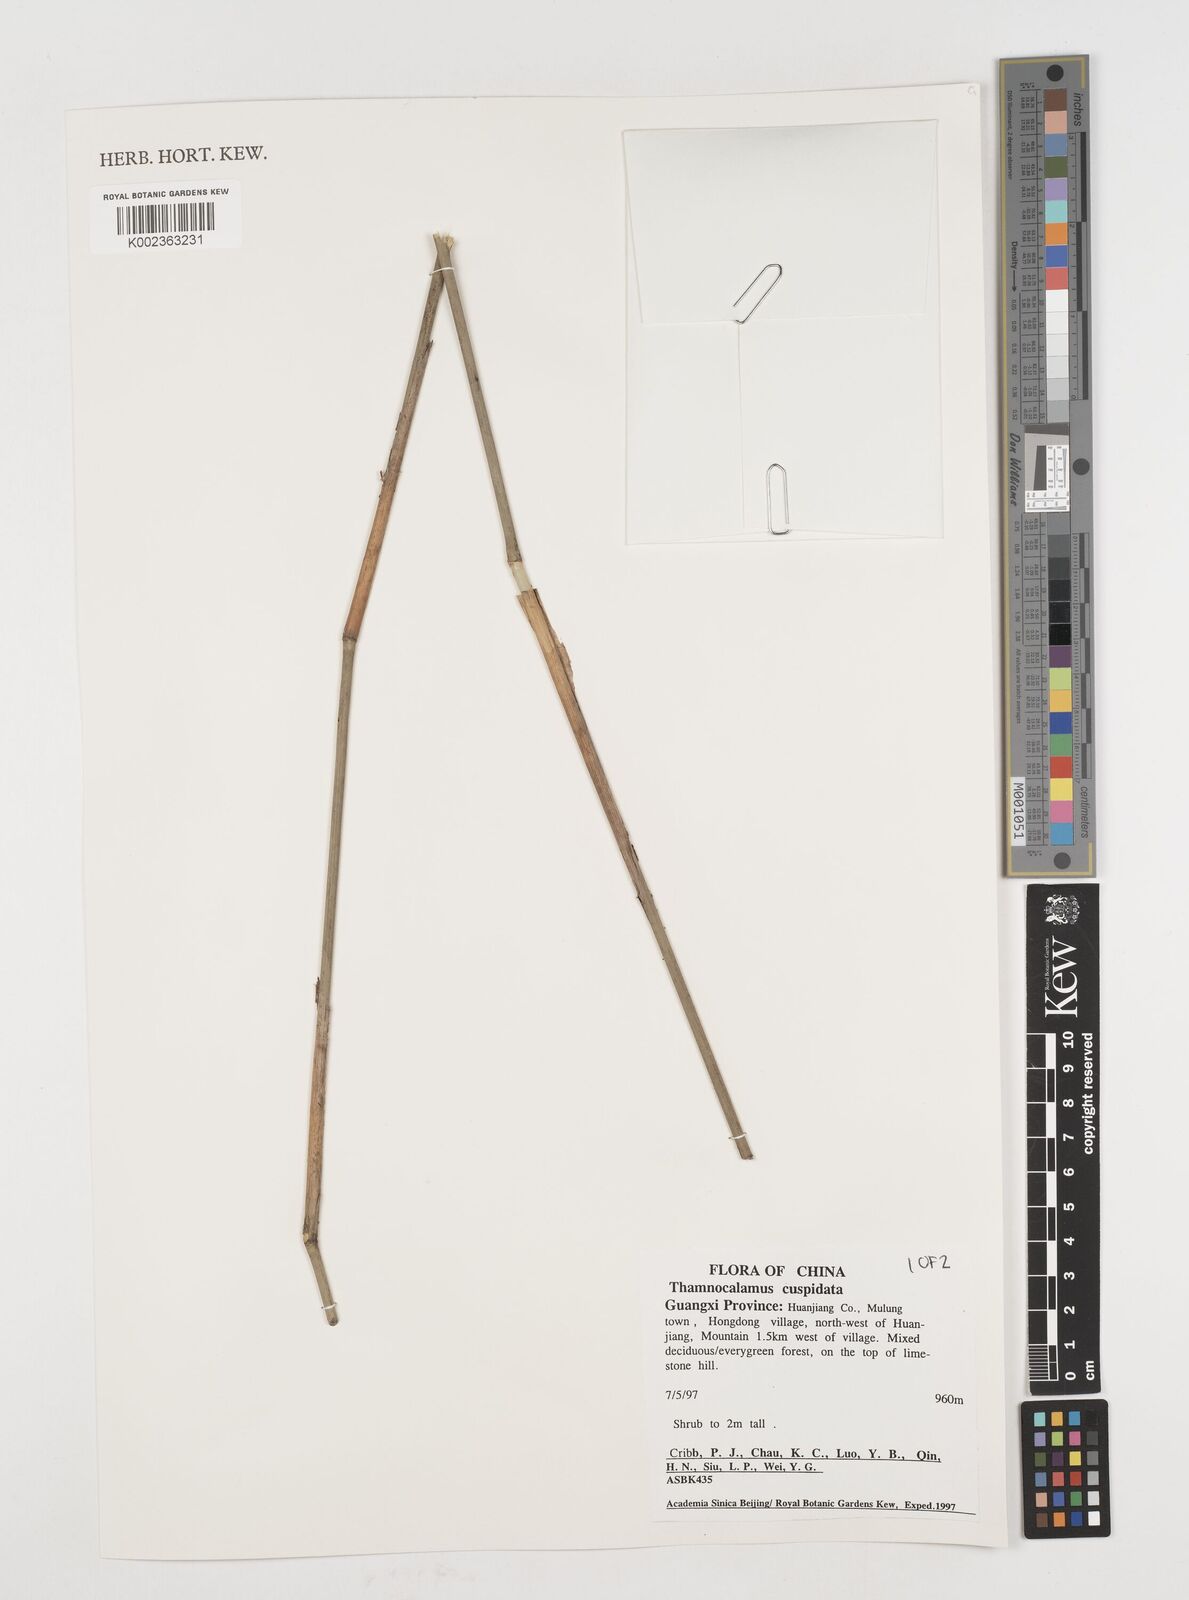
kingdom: Plantae
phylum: Tracheophyta
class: Liliopsida
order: Poales
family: Poaceae
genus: Fargesia
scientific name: Fargesia
